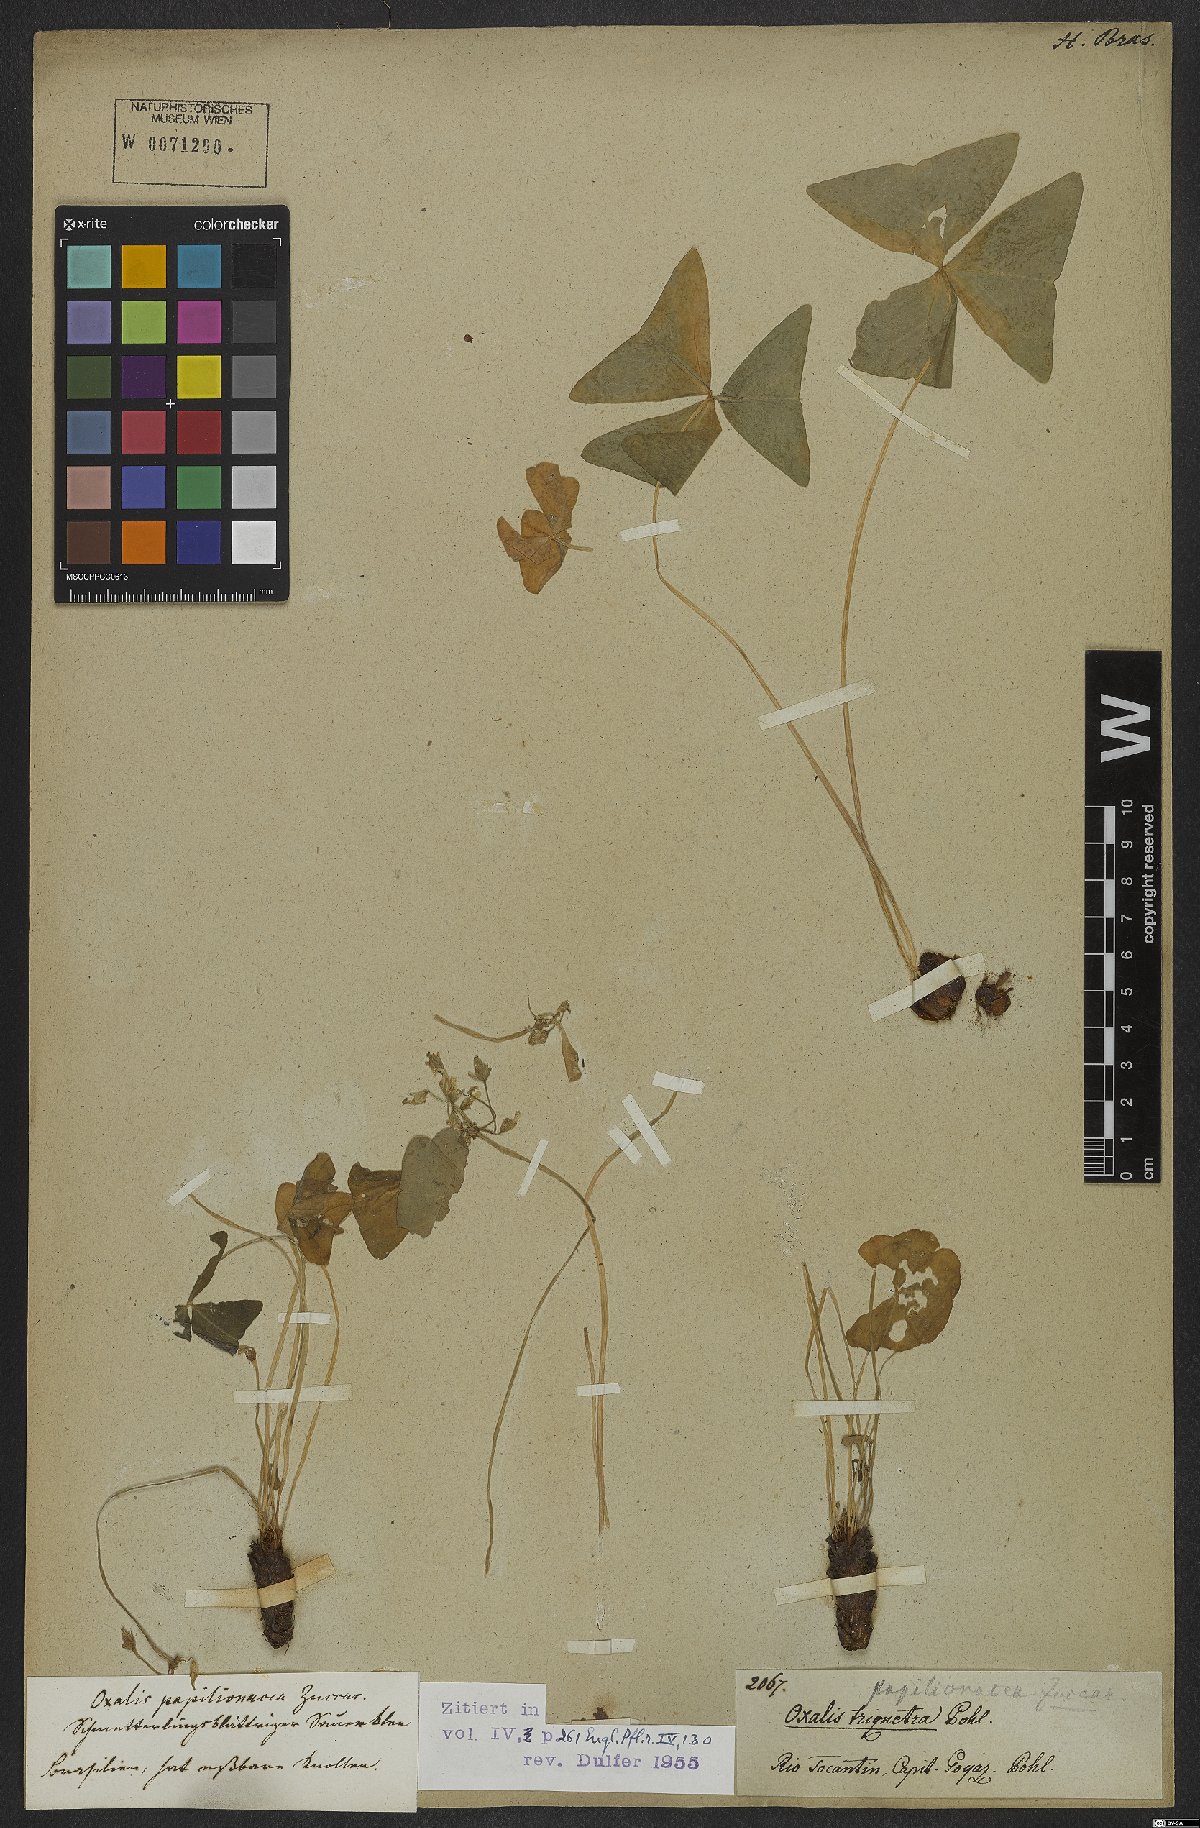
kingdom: Plantae
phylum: Tracheophyta
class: Magnoliopsida
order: Oxalidales
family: Oxalidaceae
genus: Oxalis
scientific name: Oxalis triangularis
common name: Wood sorrel
